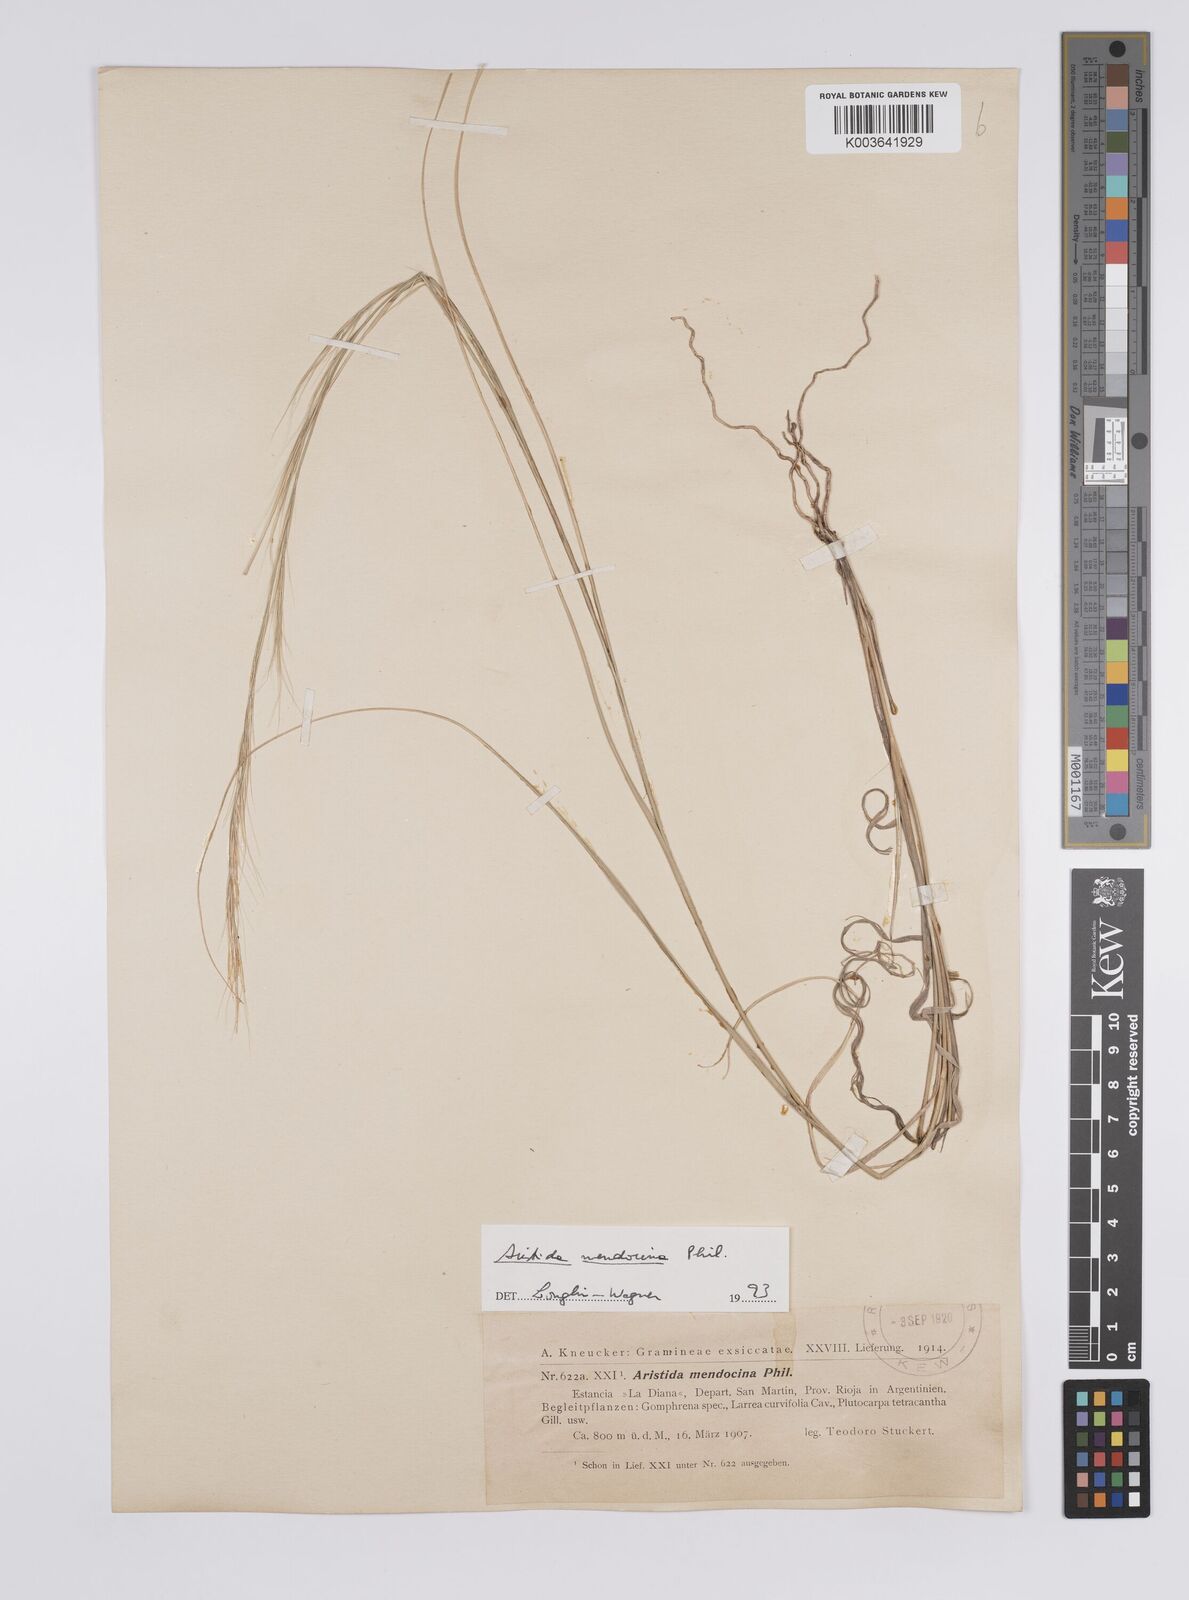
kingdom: Plantae
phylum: Tracheophyta
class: Liliopsida
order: Poales
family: Poaceae
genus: Aristida
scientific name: Aristida mendocina
